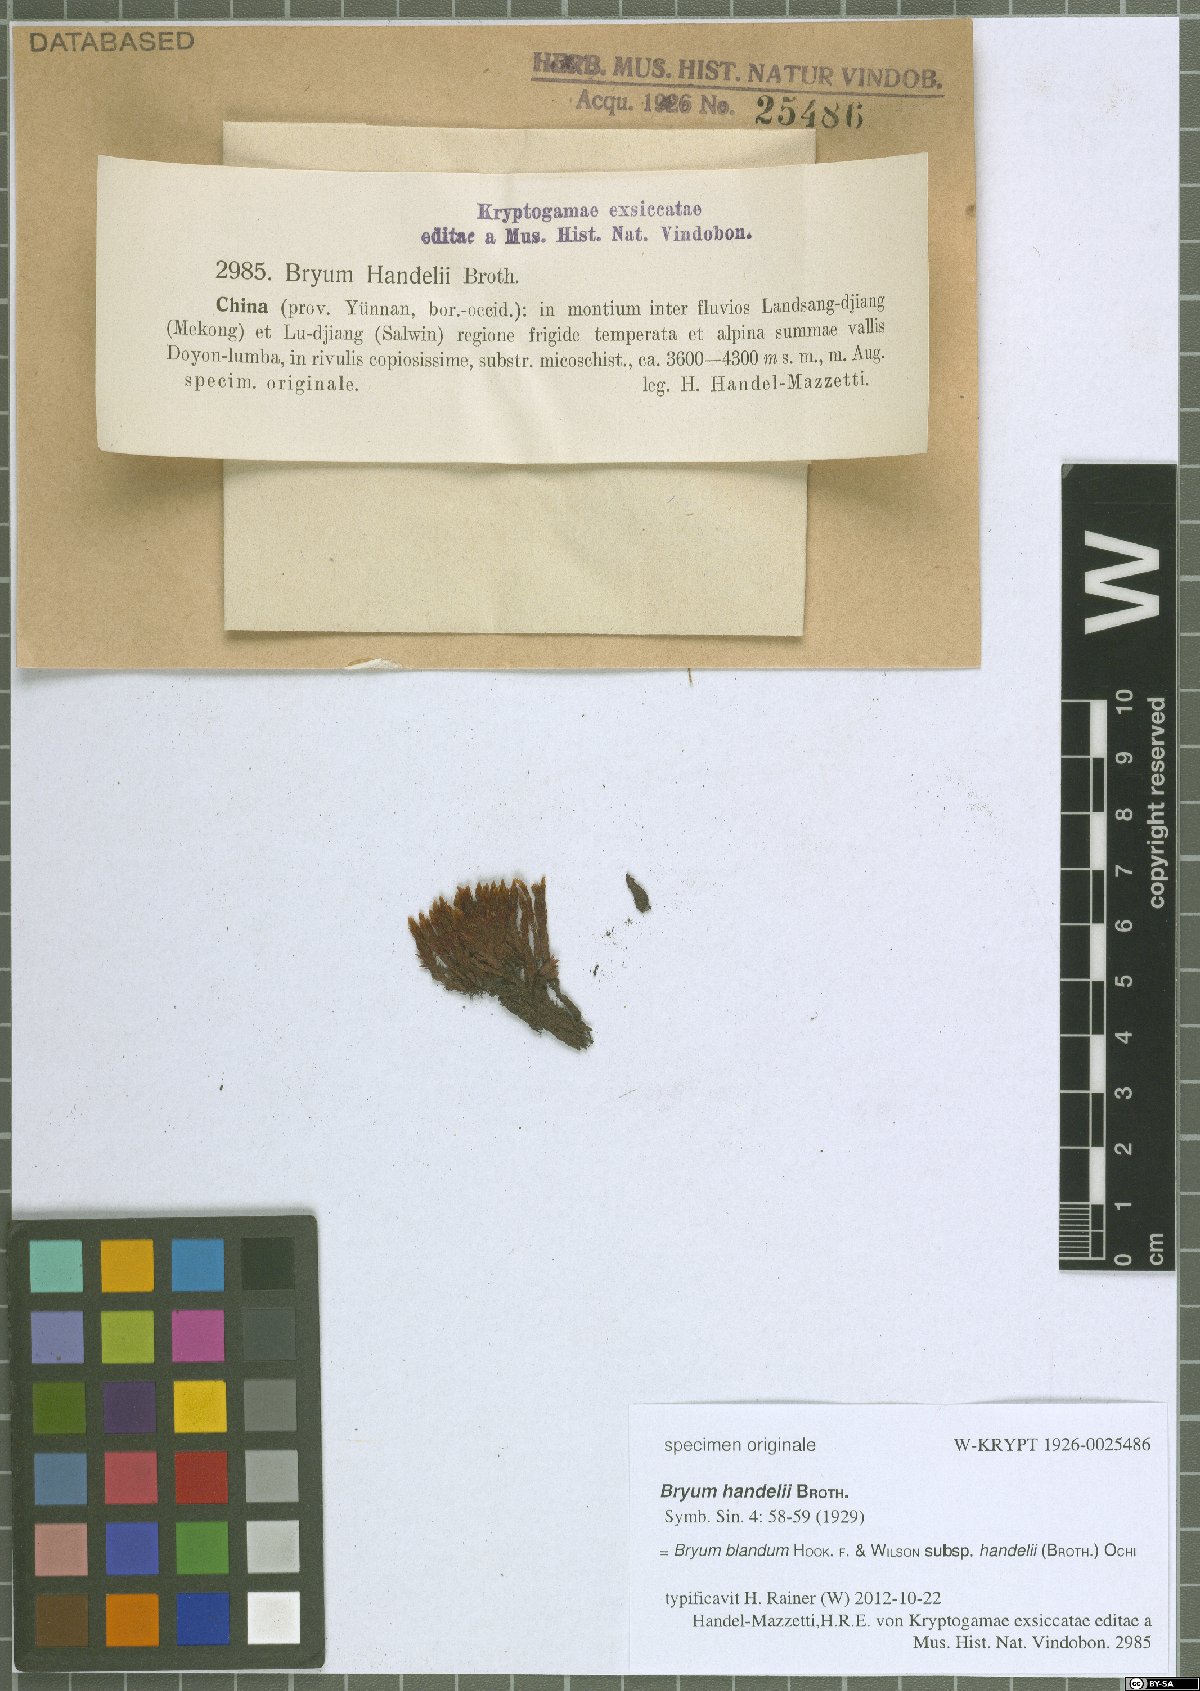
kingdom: Plantae
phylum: Bryophyta
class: Bryopsida
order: Bryales
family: Bryaceae
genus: Ochiobryum
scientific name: Ochiobryum handelii
